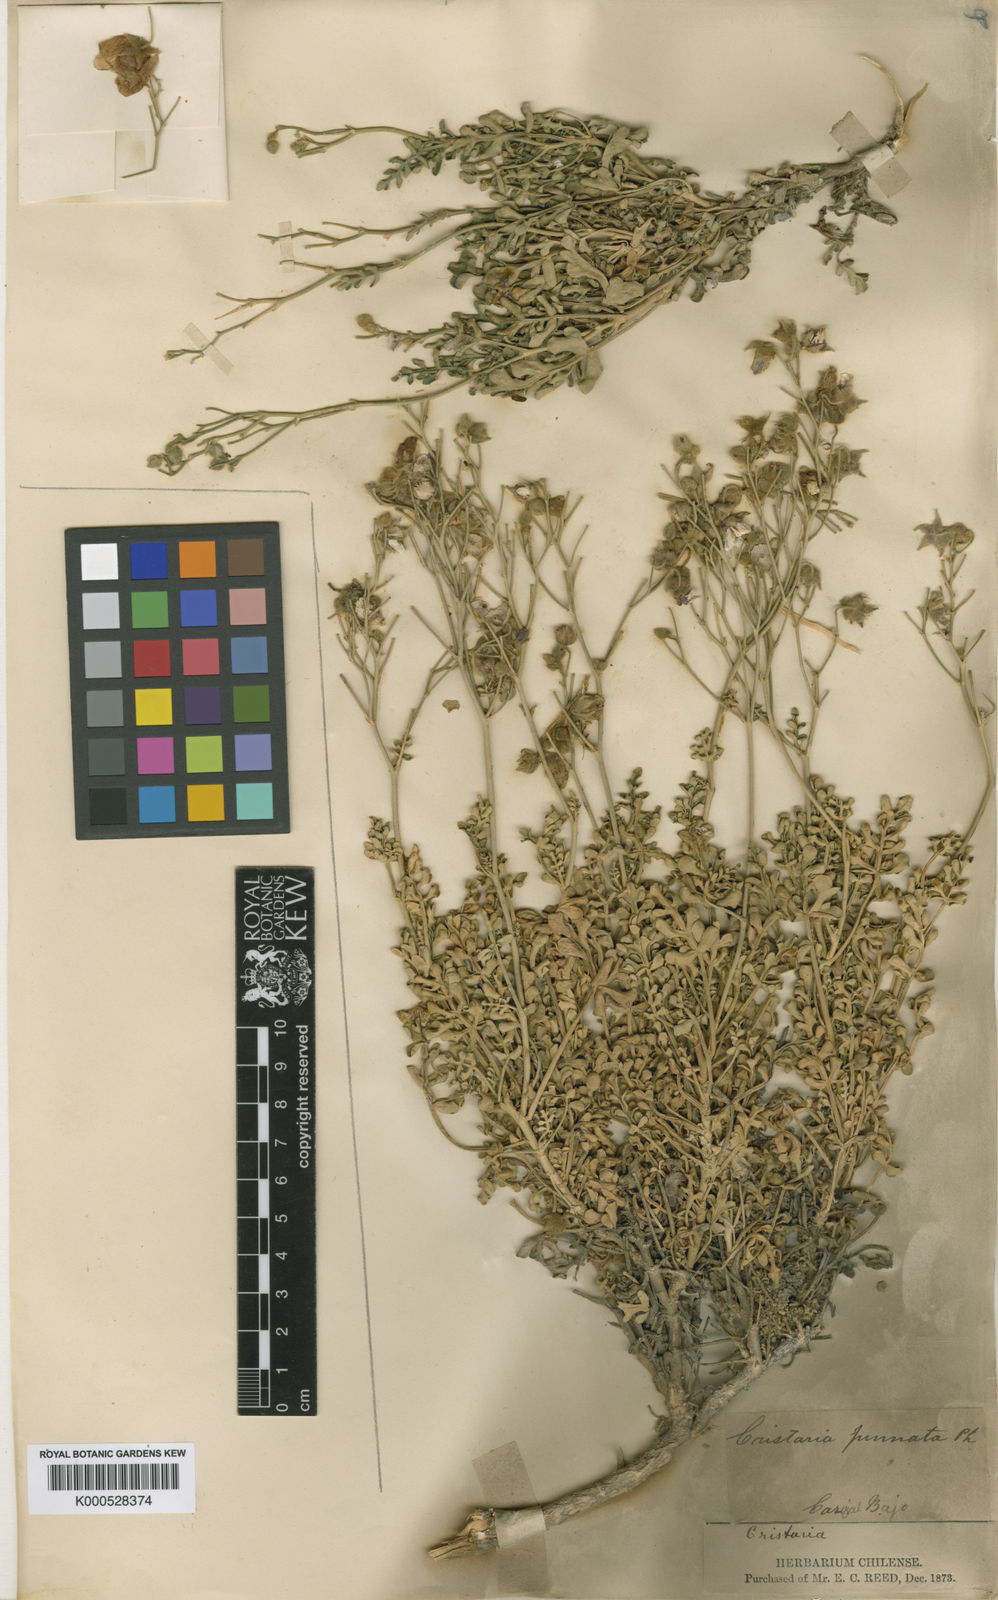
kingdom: Plantae
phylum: Tracheophyta
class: Magnoliopsida
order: Malvales
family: Malvaceae
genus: Cristaria
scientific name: Cristaria viridiluteola
